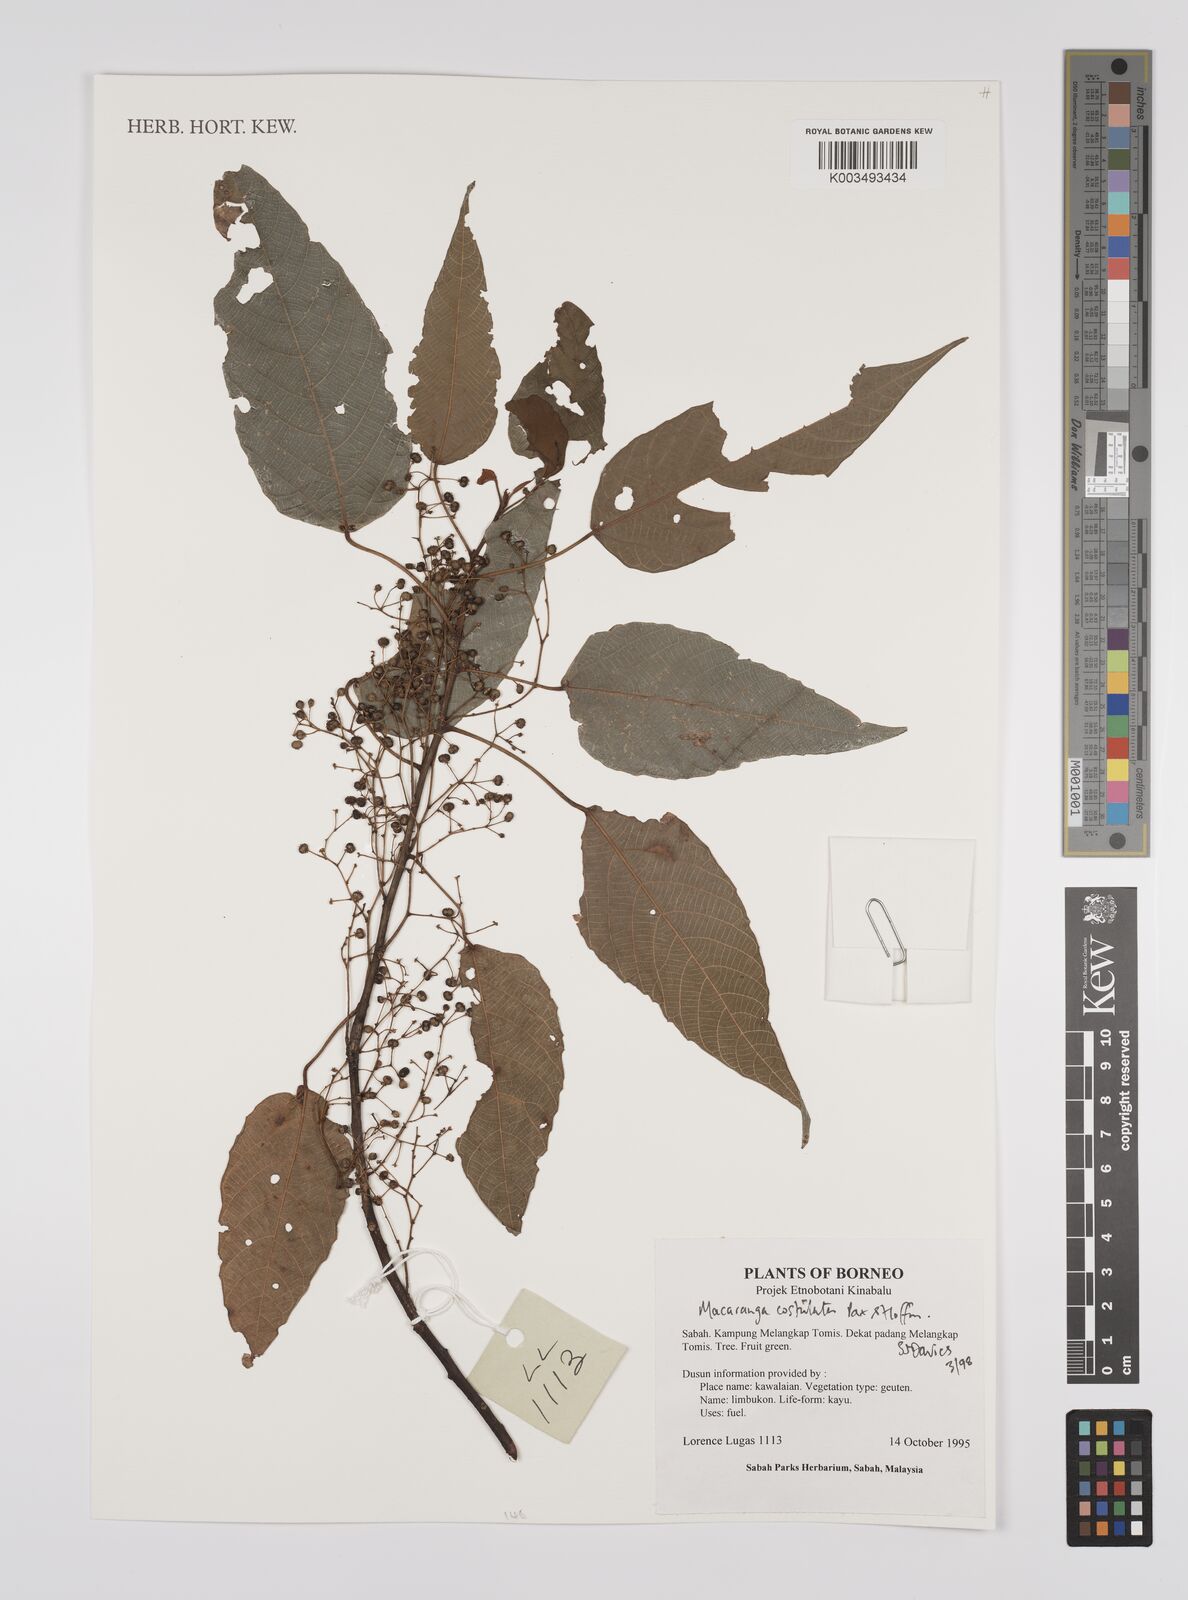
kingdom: Plantae
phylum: Tracheophyta
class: Magnoliopsida
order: Malpighiales
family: Euphorbiaceae
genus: Macaranga
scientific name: Macaranga costulata
